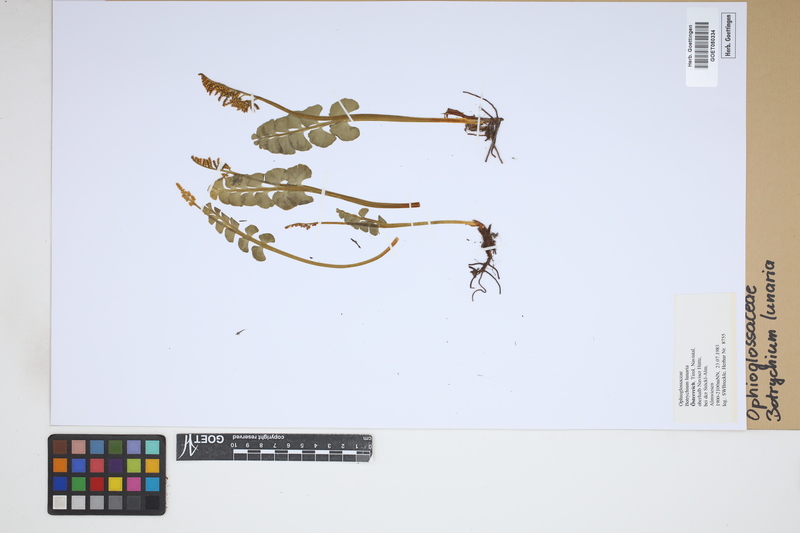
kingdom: Plantae
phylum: Tracheophyta
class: Polypodiopsida
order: Ophioglossales
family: Ophioglossaceae
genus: Botrychium
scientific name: Botrychium lunaria
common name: Moonwort
